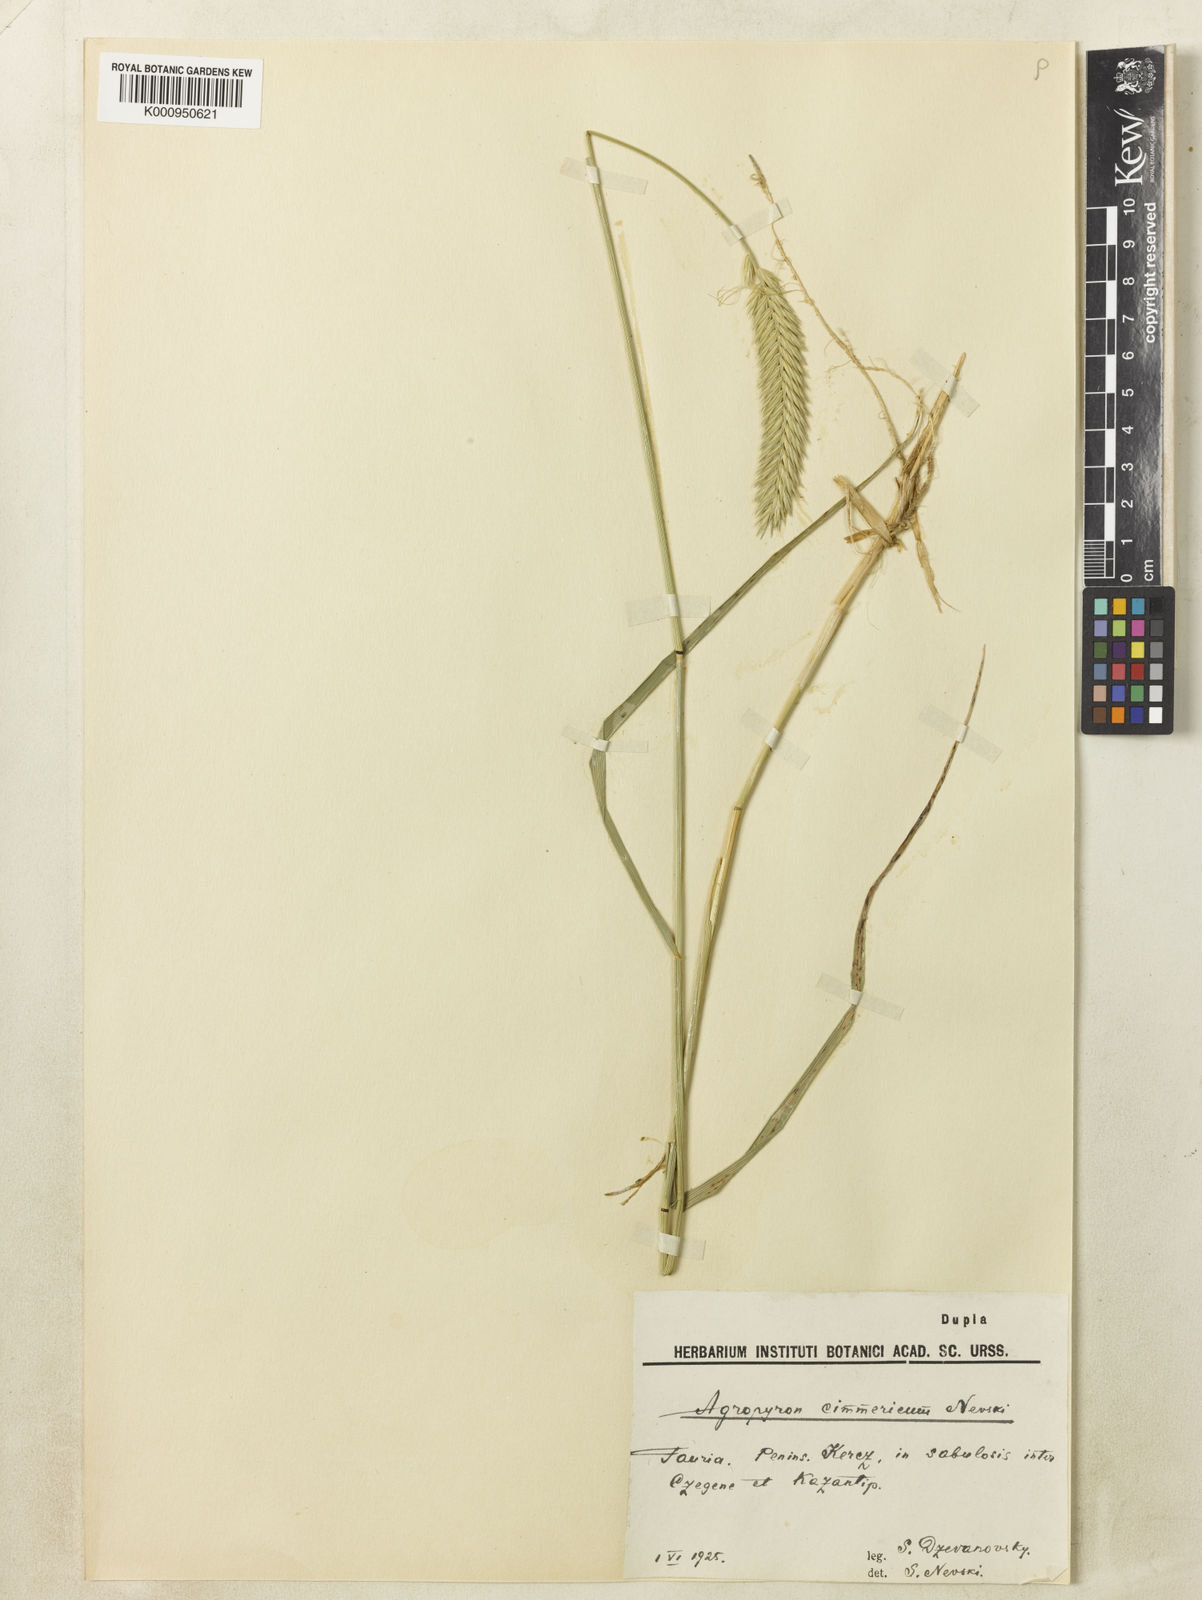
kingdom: Plantae
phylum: Tracheophyta
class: Liliopsida
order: Poales
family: Poaceae
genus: Agropyron
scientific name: Agropyron
